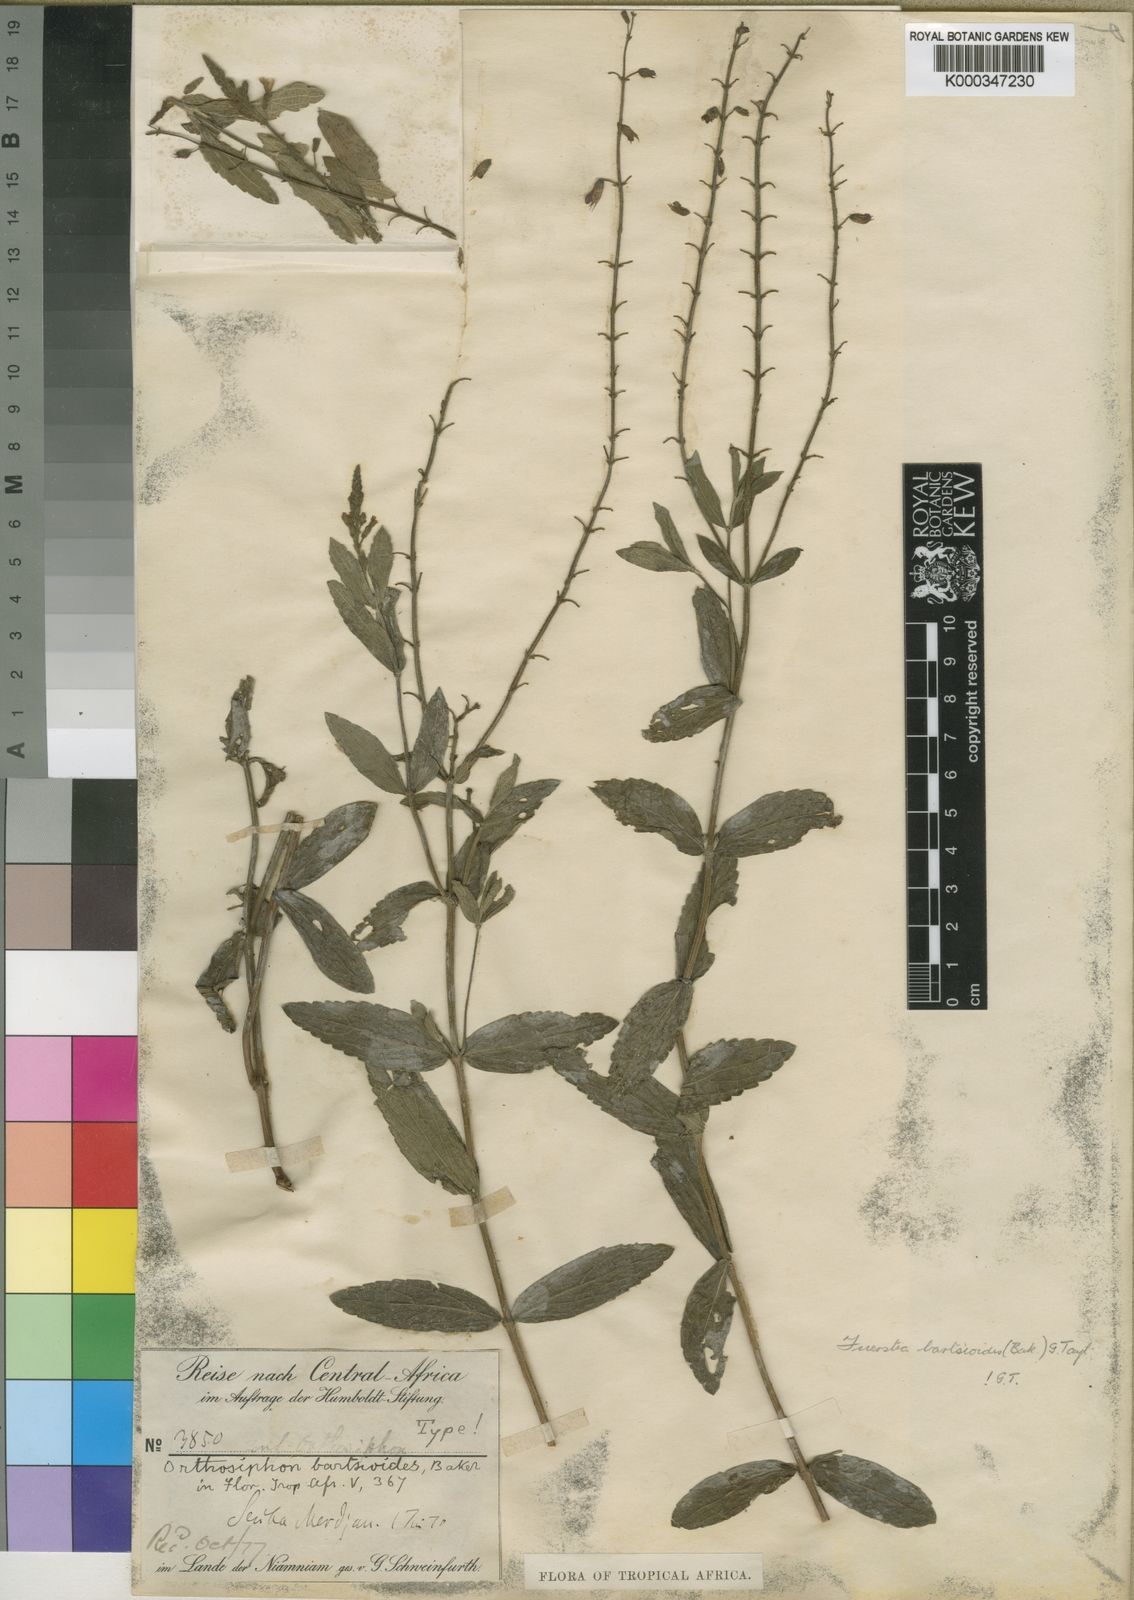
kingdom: Plantae
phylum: Tracheophyta
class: Magnoliopsida
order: Lamiales
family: Lamiaceae
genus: Fuerstia
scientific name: Fuerstia bartsioides
